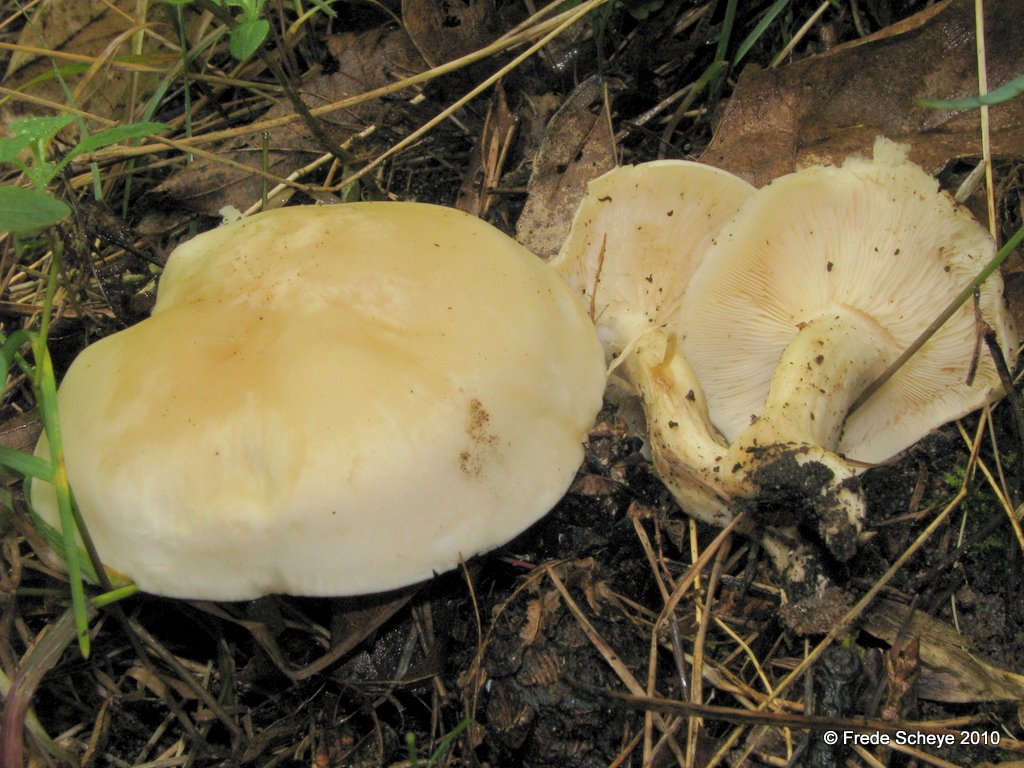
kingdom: Fungi
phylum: Basidiomycota
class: Agaricomycetes
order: Agaricales
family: Lyophyllaceae
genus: Calocybe
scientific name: Calocybe gambosa
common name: vårmusseron
